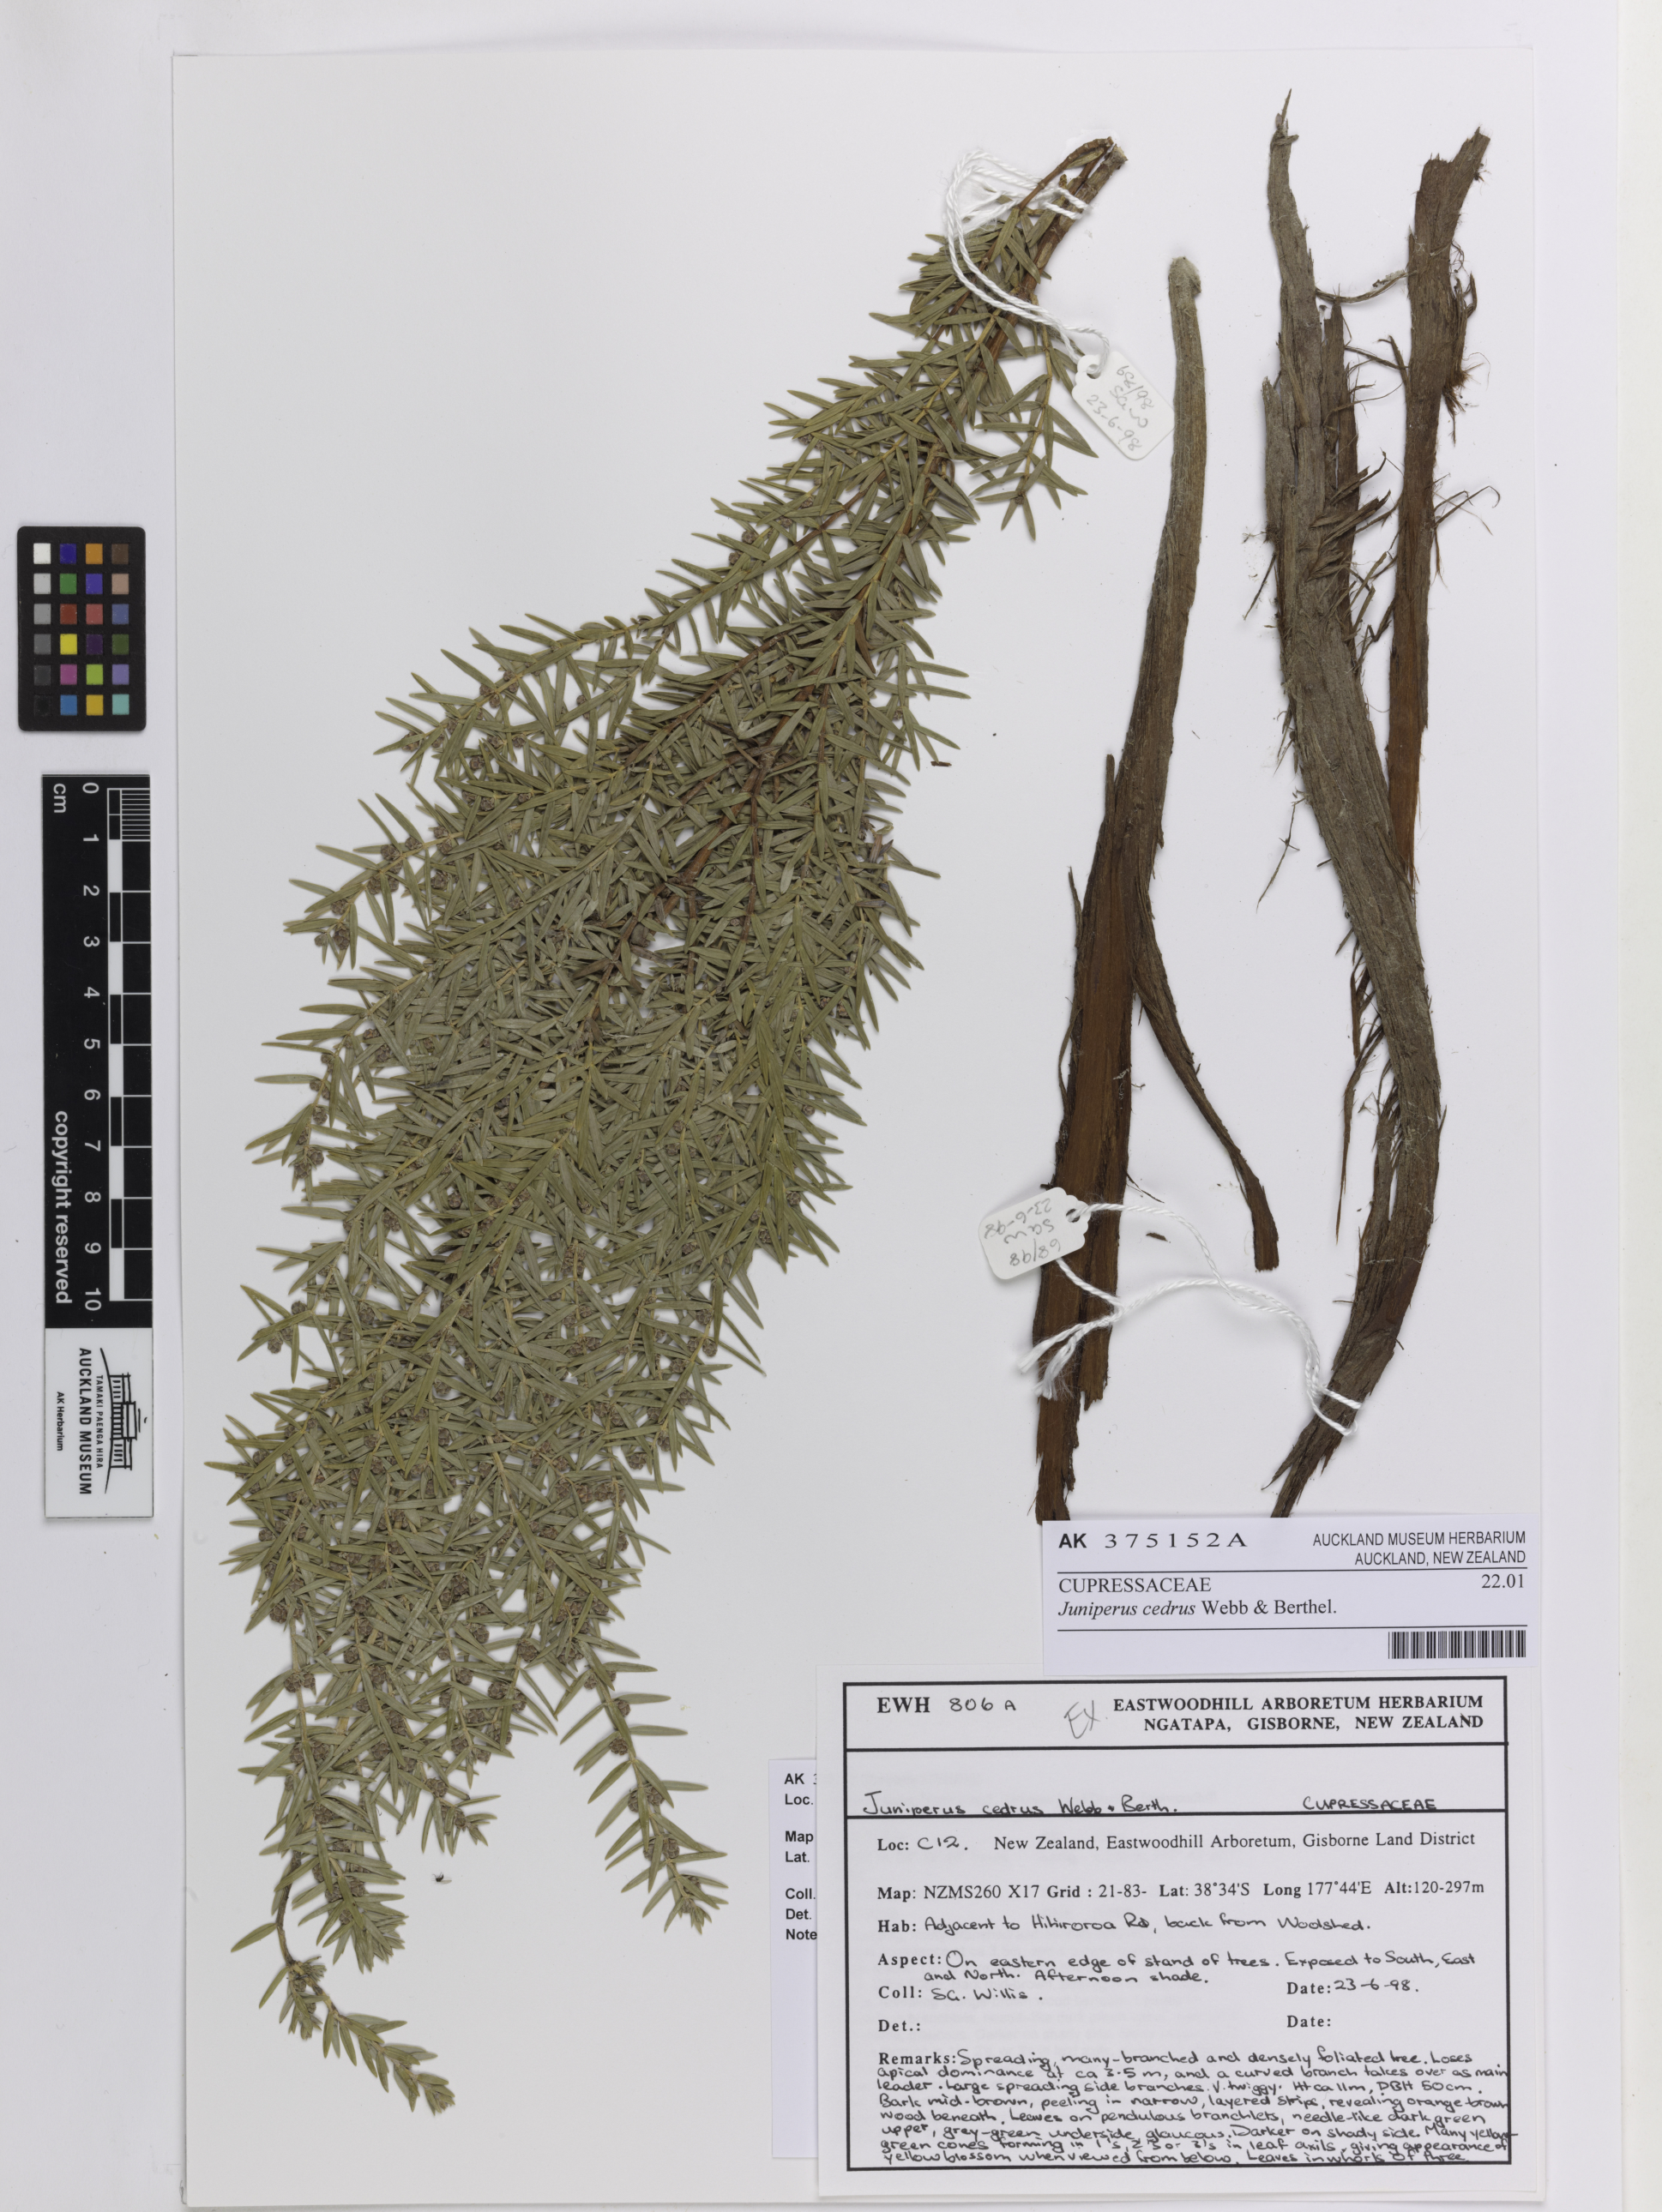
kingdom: Plantae
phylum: Tracheophyta
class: Pinopsida
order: Pinales
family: Cupressaceae
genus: Juniperus
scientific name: Juniperus cedrus
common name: Canary islands juniper
